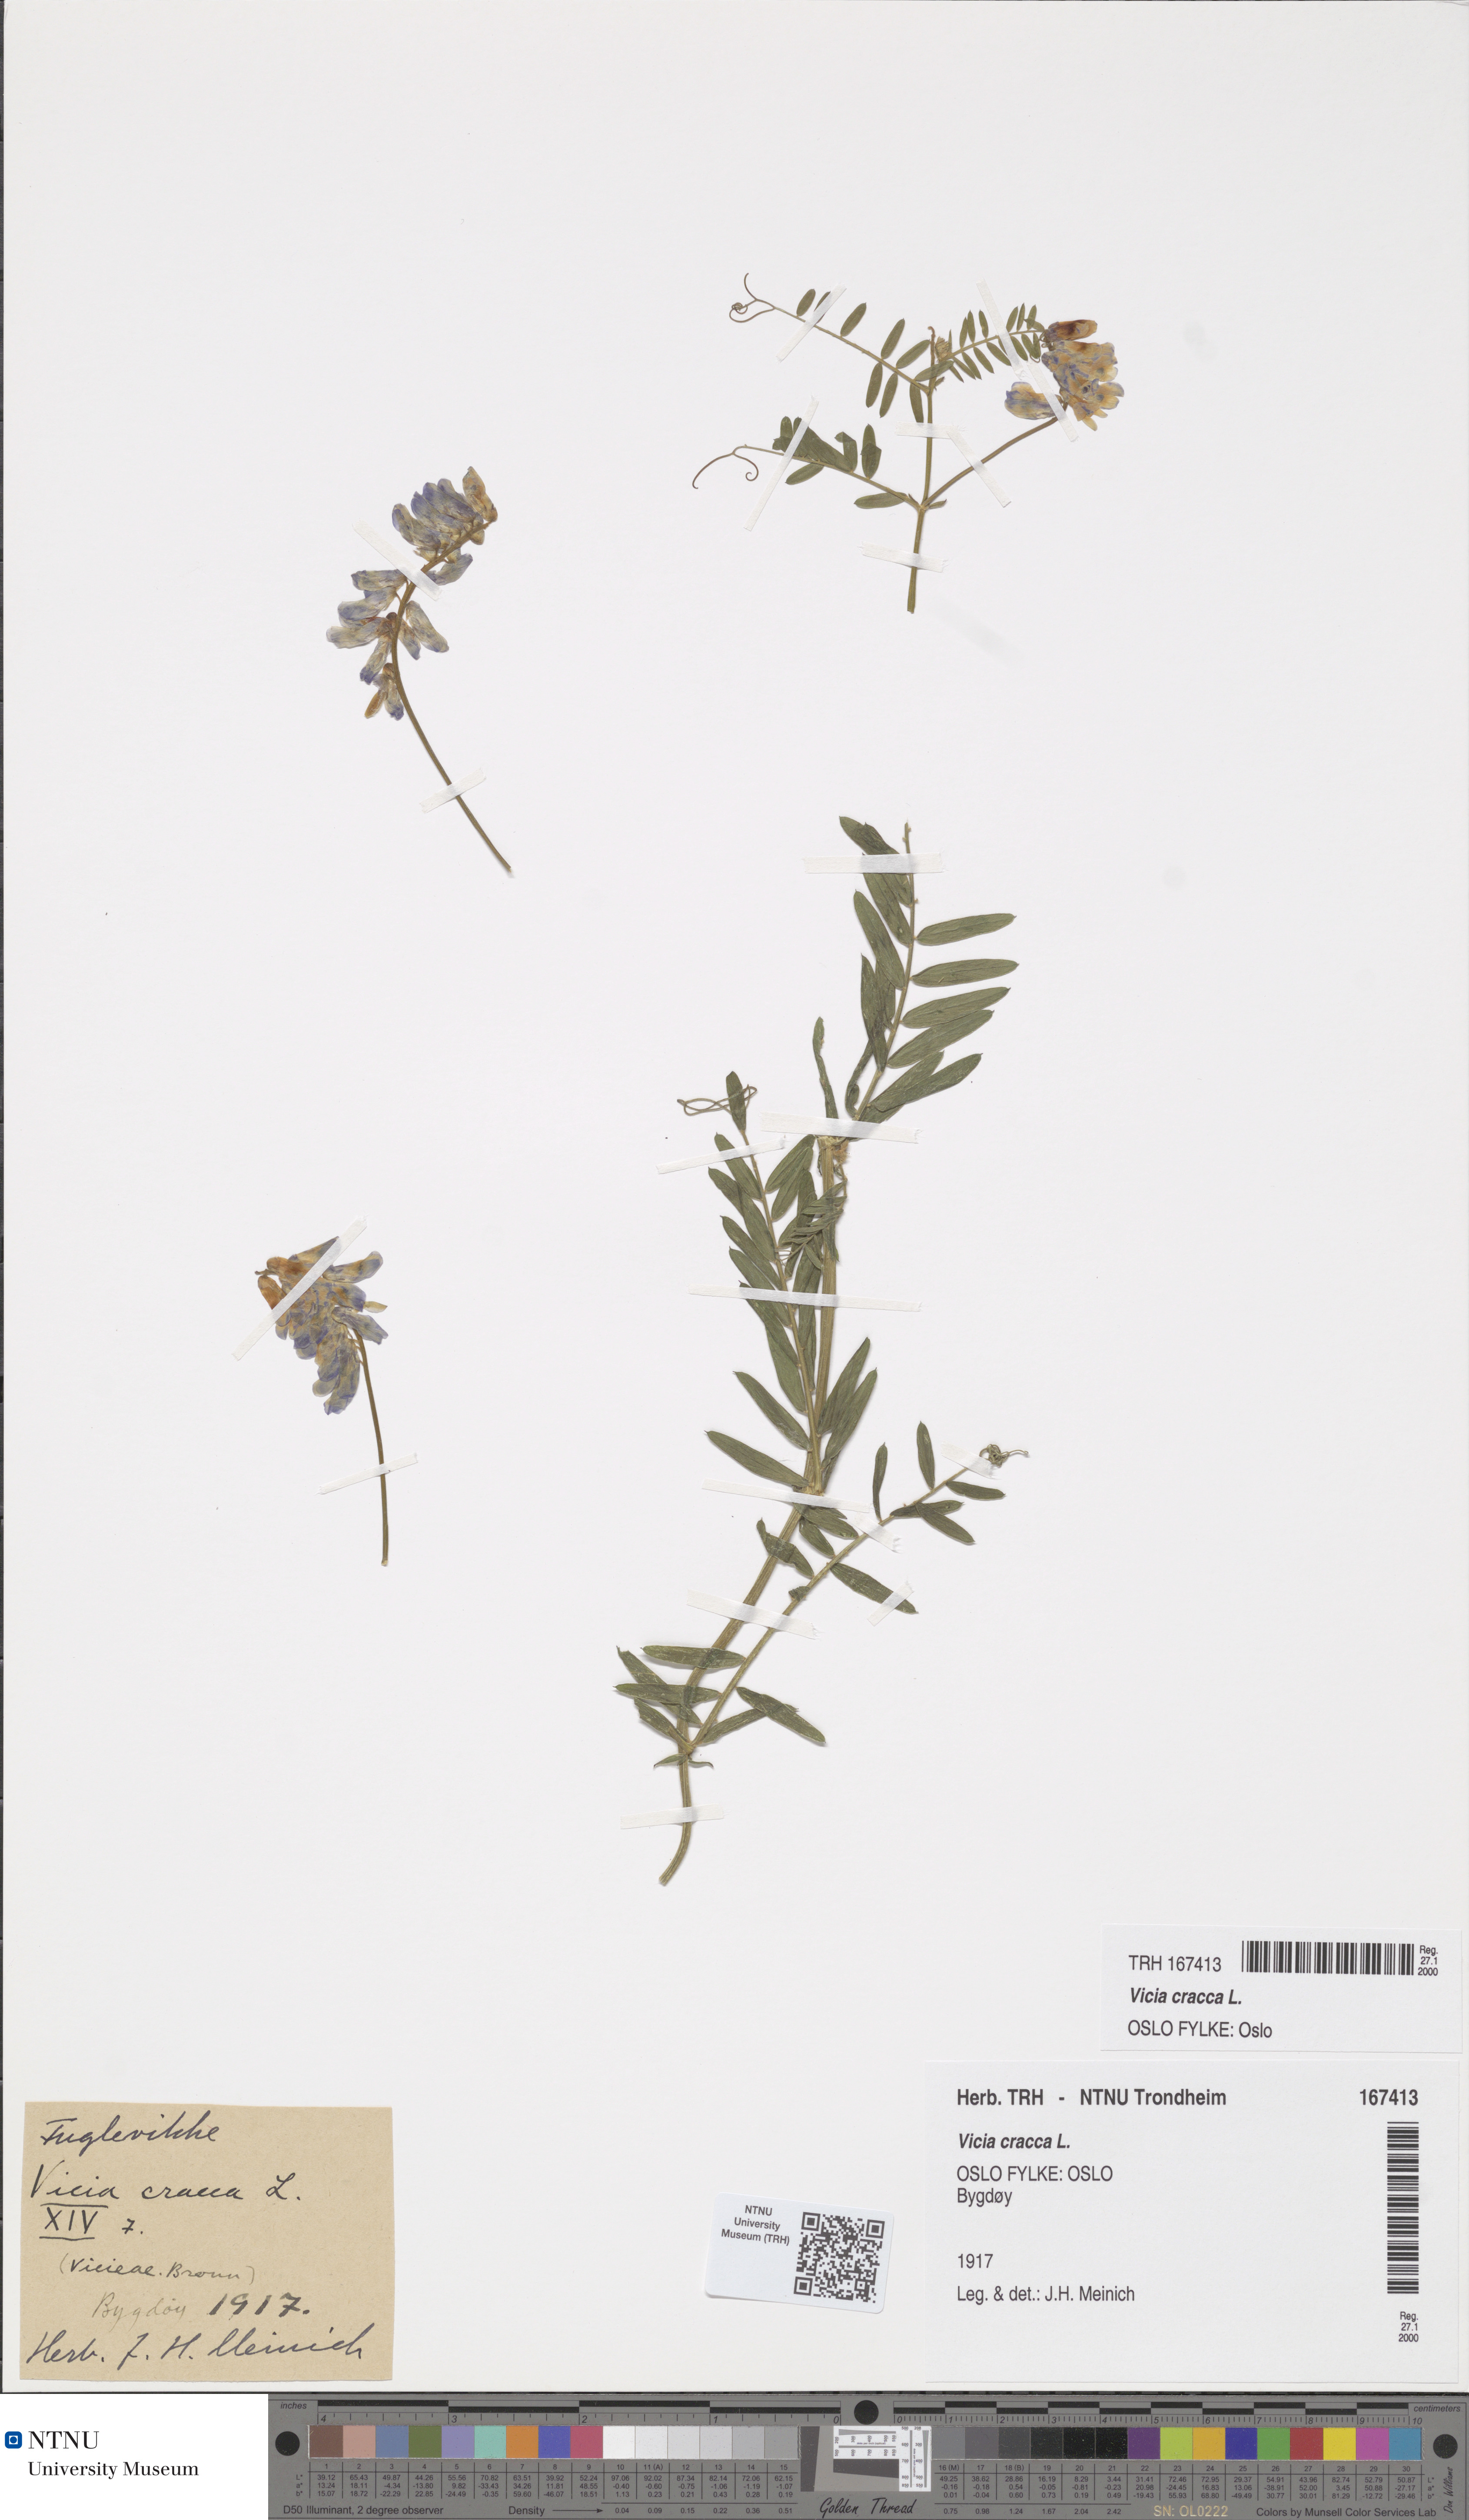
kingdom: Plantae
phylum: Tracheophyta
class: Magnoliopsida
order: Fabales
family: Fabaceae
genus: Vicia
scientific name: Vicia cracca
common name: Bird vetch
